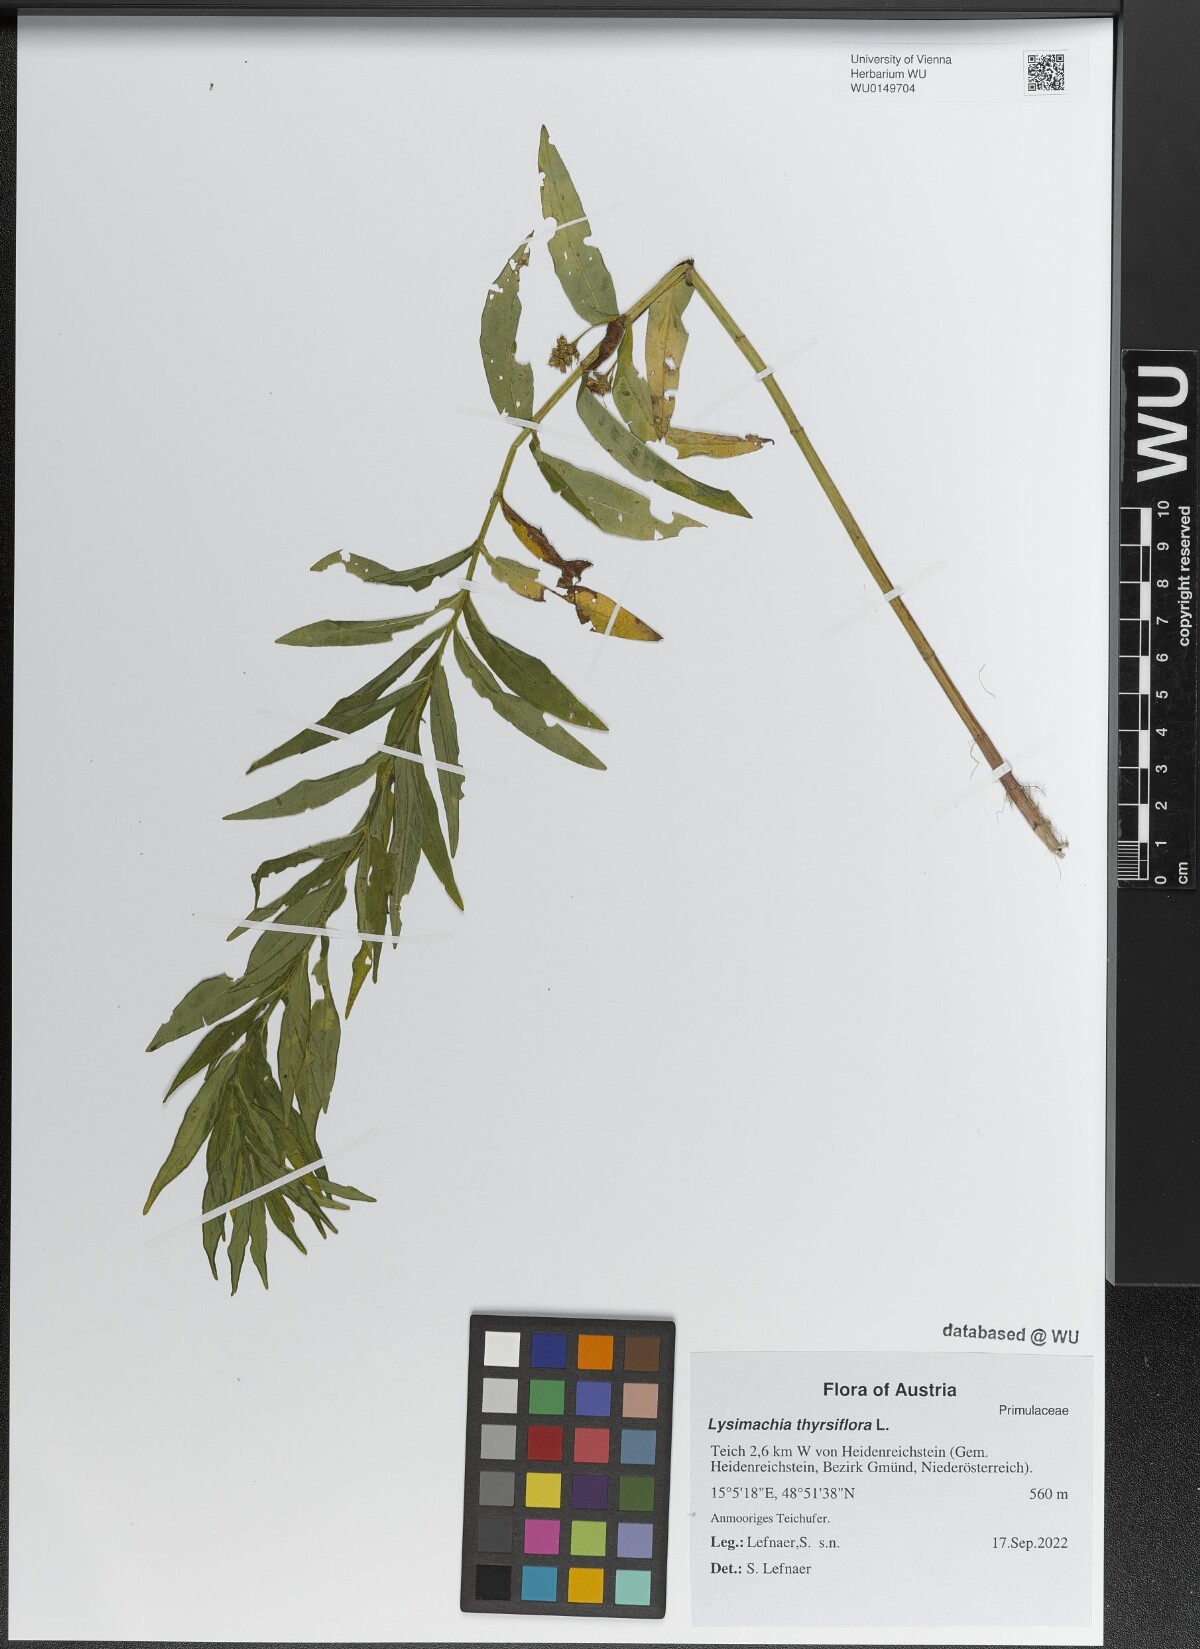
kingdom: Plantae
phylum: Tracheophyta
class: Magnoliopsida
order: Ericales
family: Primulaceae
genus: Lysimachia
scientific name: Lysimachia thyrsiflora
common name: Tufted loosestrife
